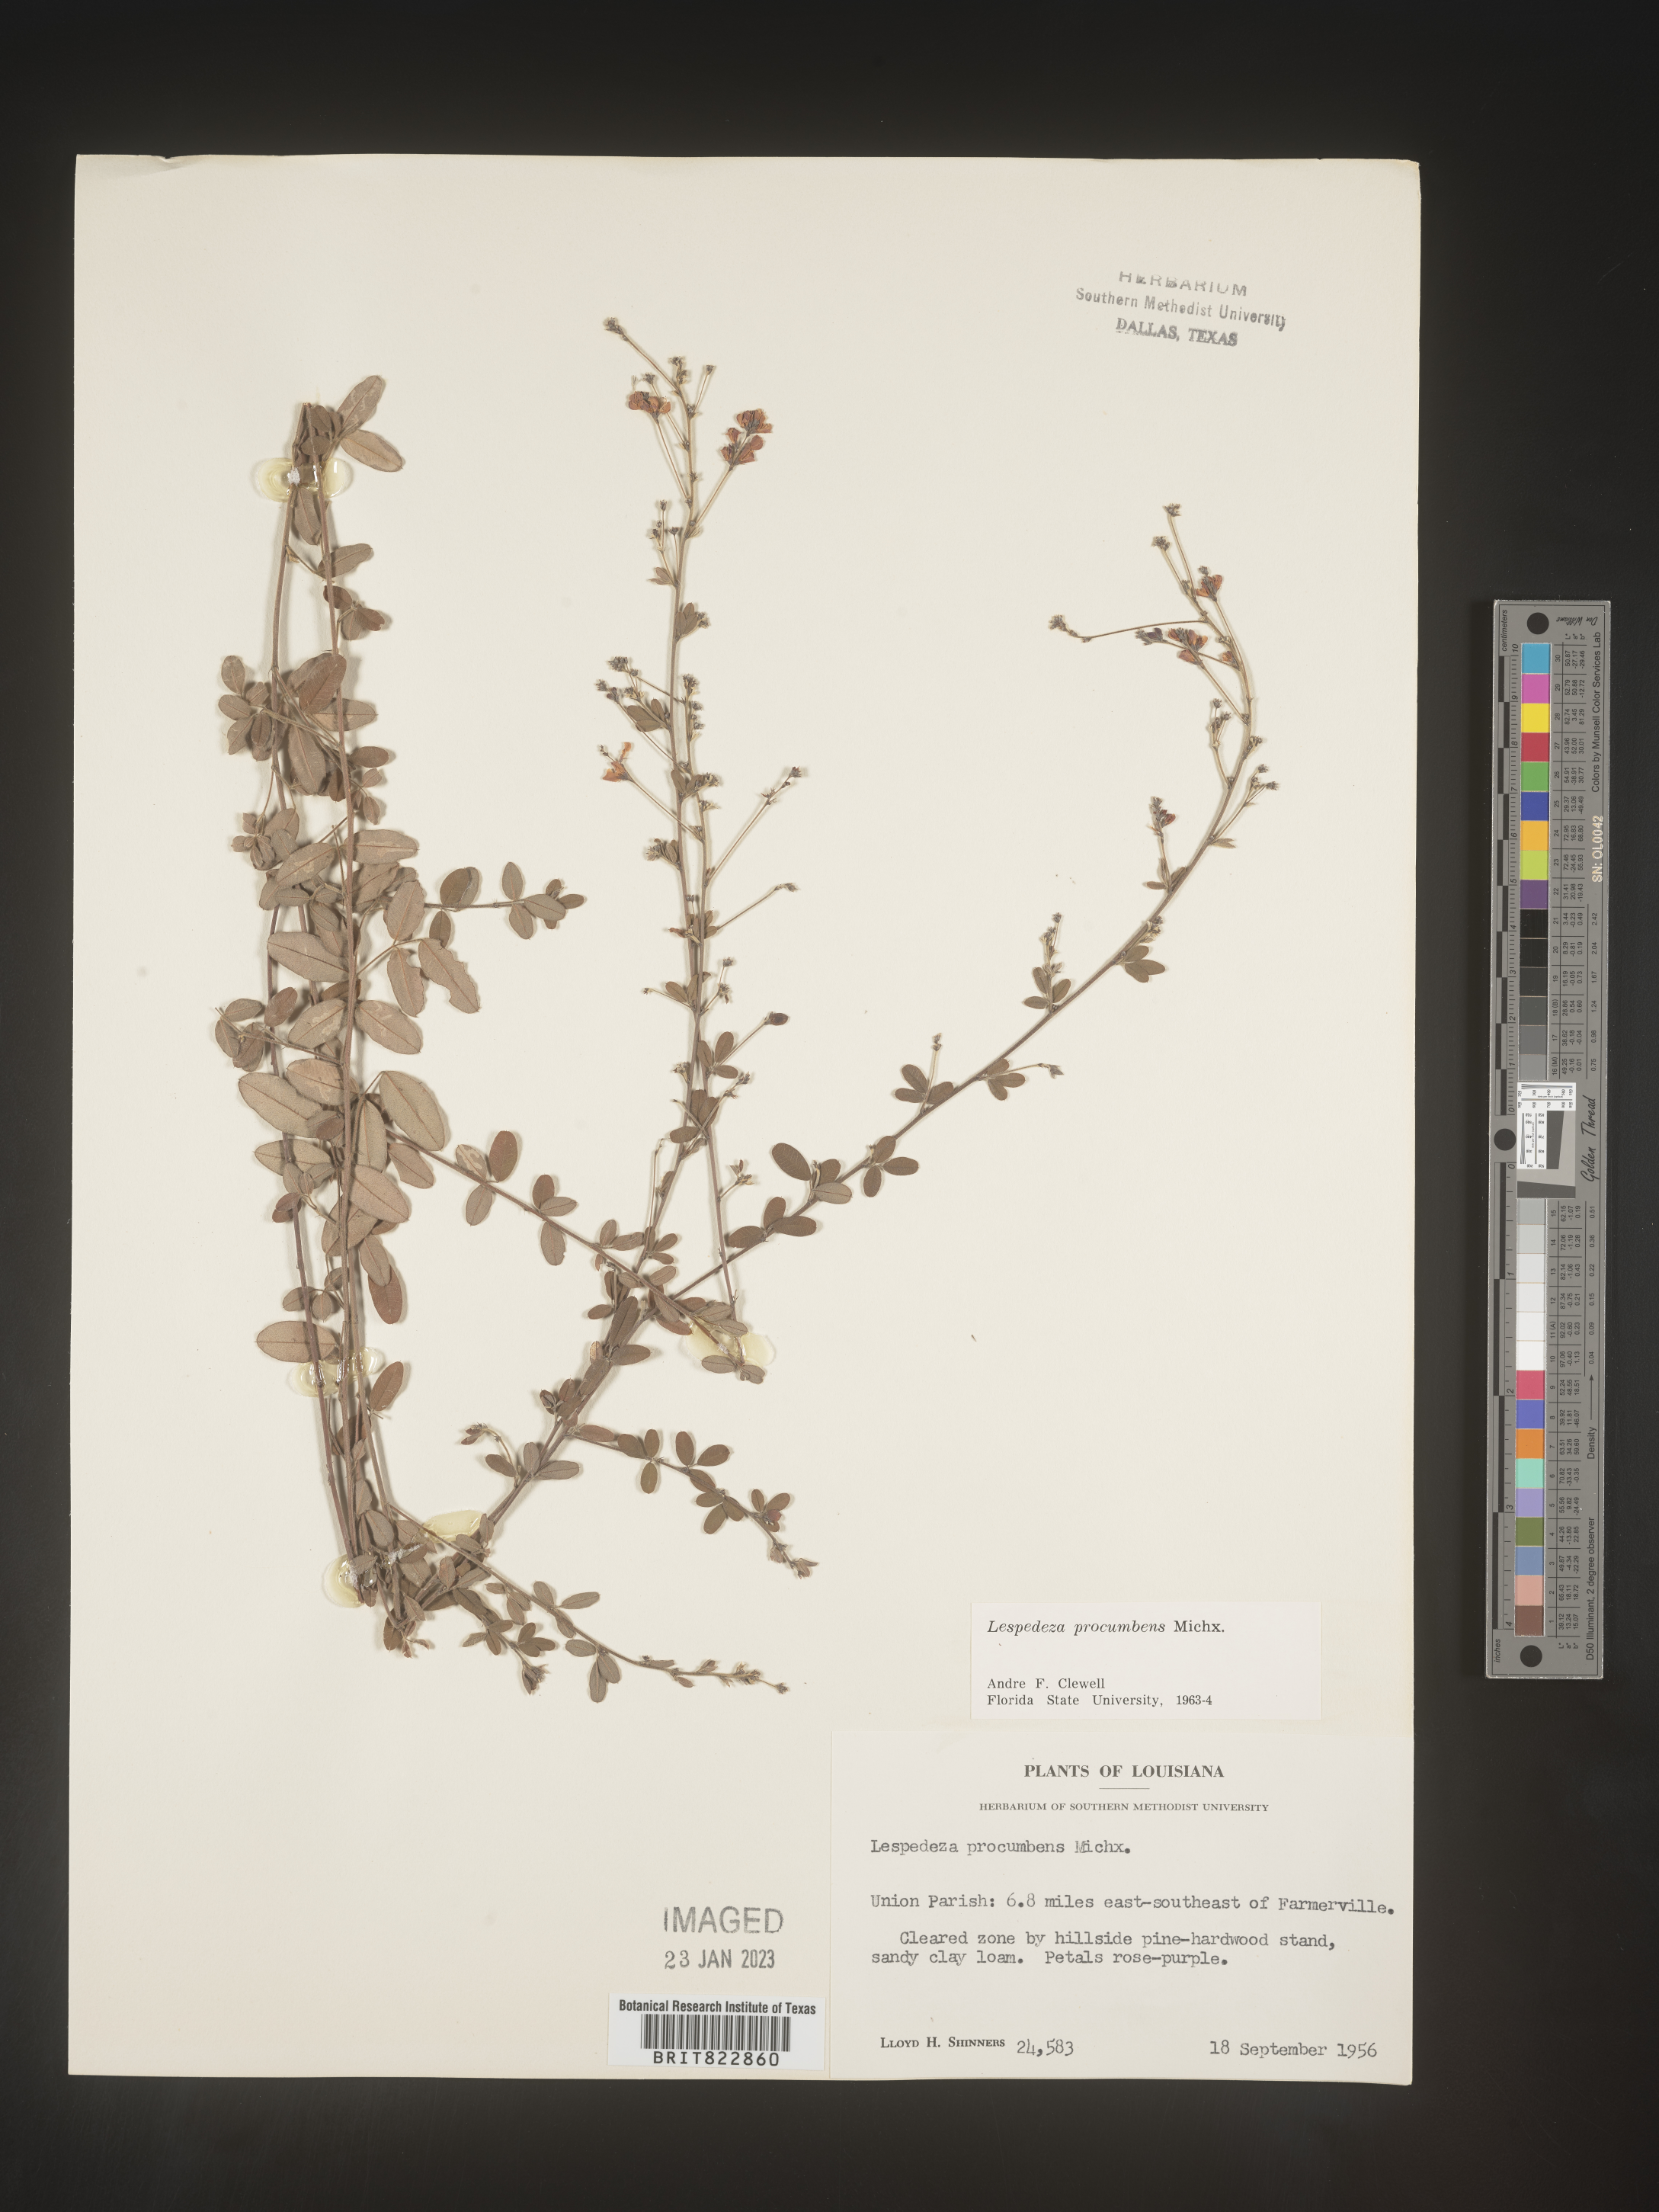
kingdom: Plantae
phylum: Tracheophyta
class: Magnoliopsida
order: Fabales
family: Fabaceae
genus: Lespedeza
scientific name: Lespedeza procumbens
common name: Downy trailing bush-clover
